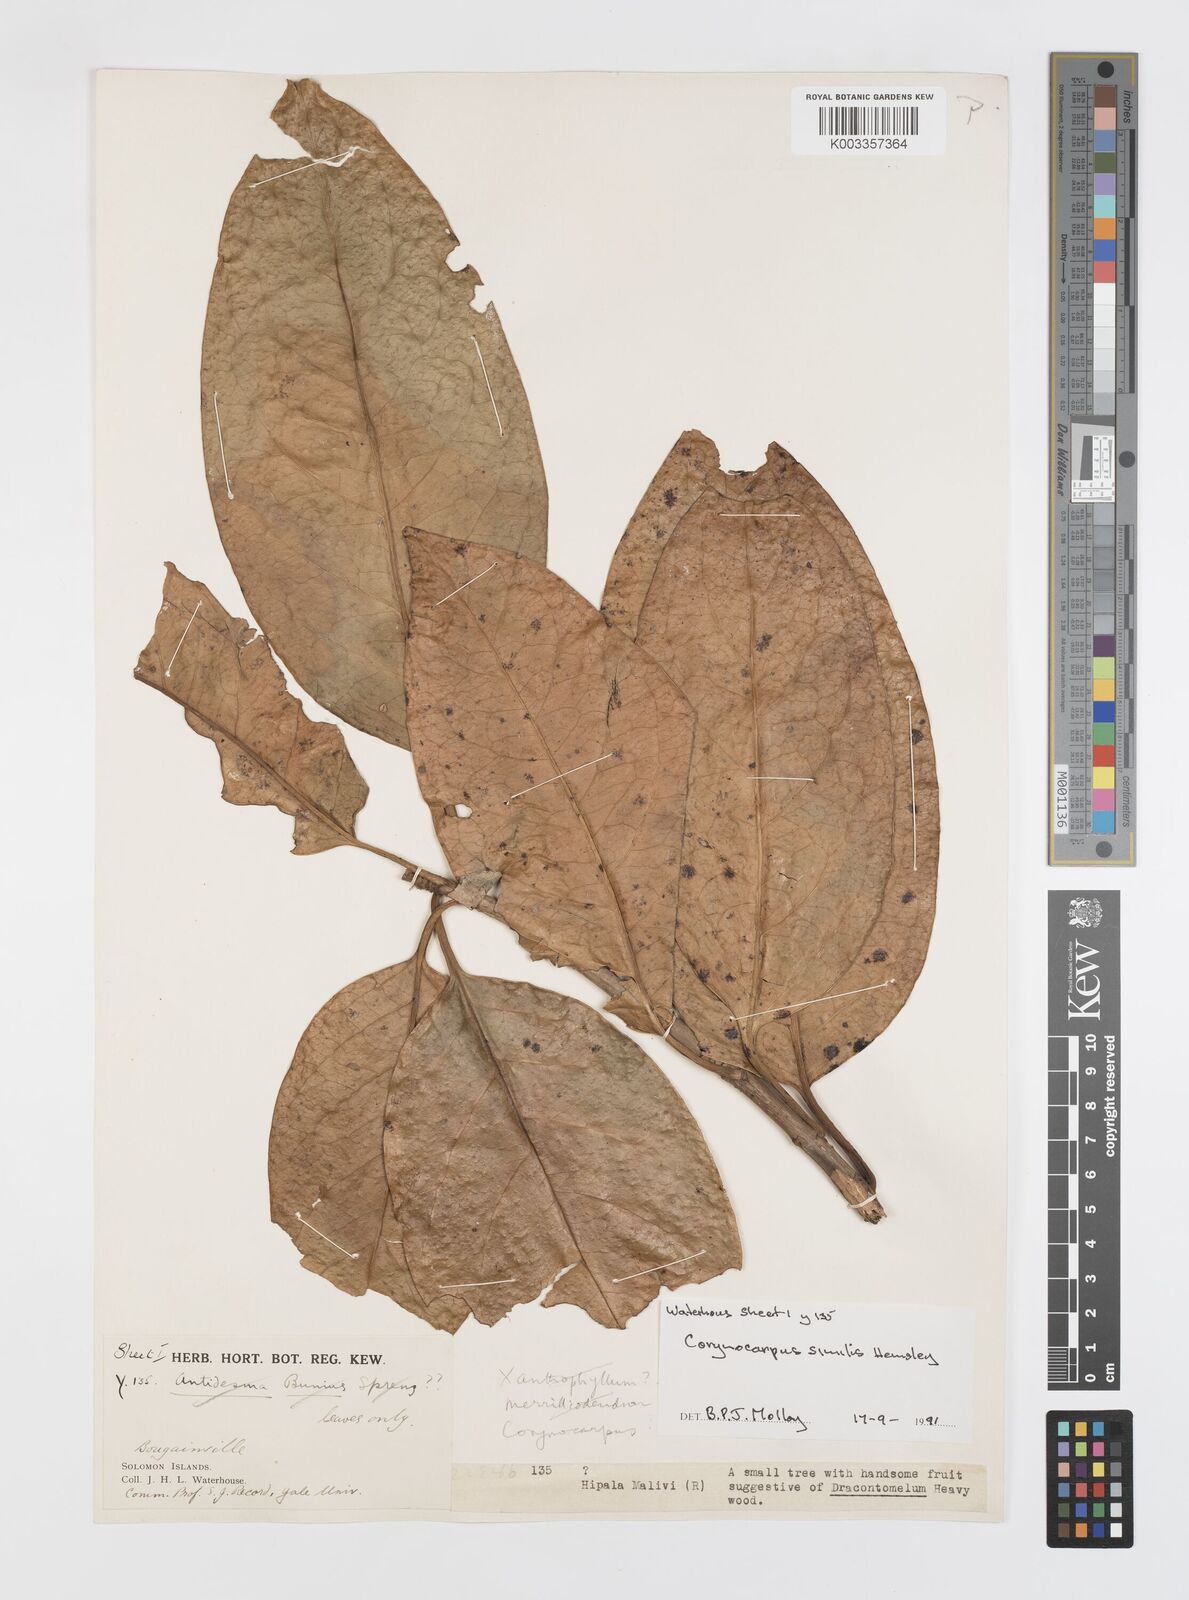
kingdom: Plantae
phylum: Tracheophyta
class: Magnoliopsida
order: Cucurbitales
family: Corynocarpaceae
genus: Corynocarpus
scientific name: Corynocarpus similis
